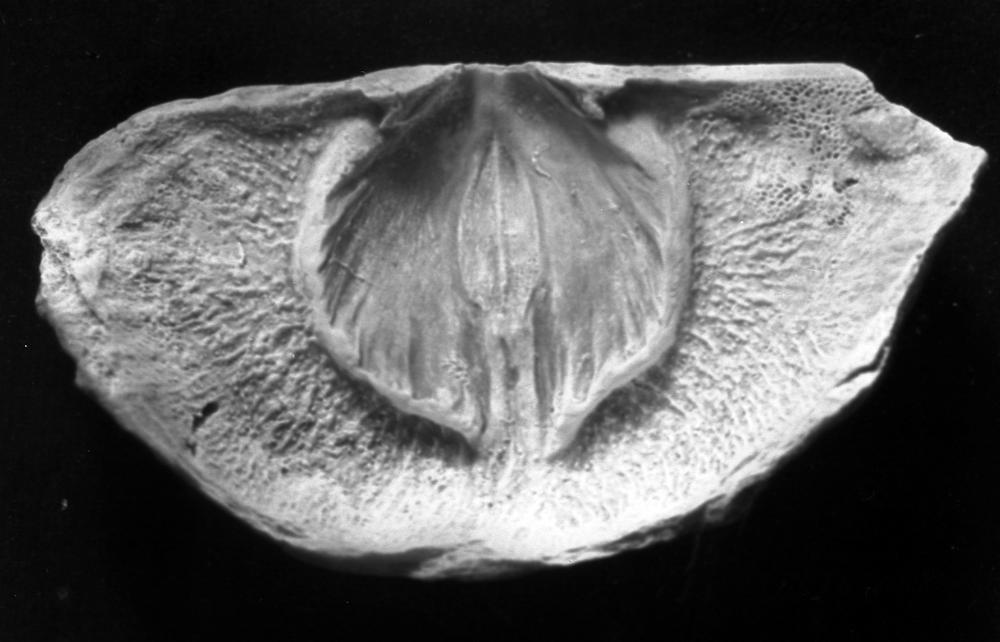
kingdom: Animalia
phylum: Brachiopoda
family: Strophomenidae
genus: Leptaena
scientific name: Leptaena rugosoides
